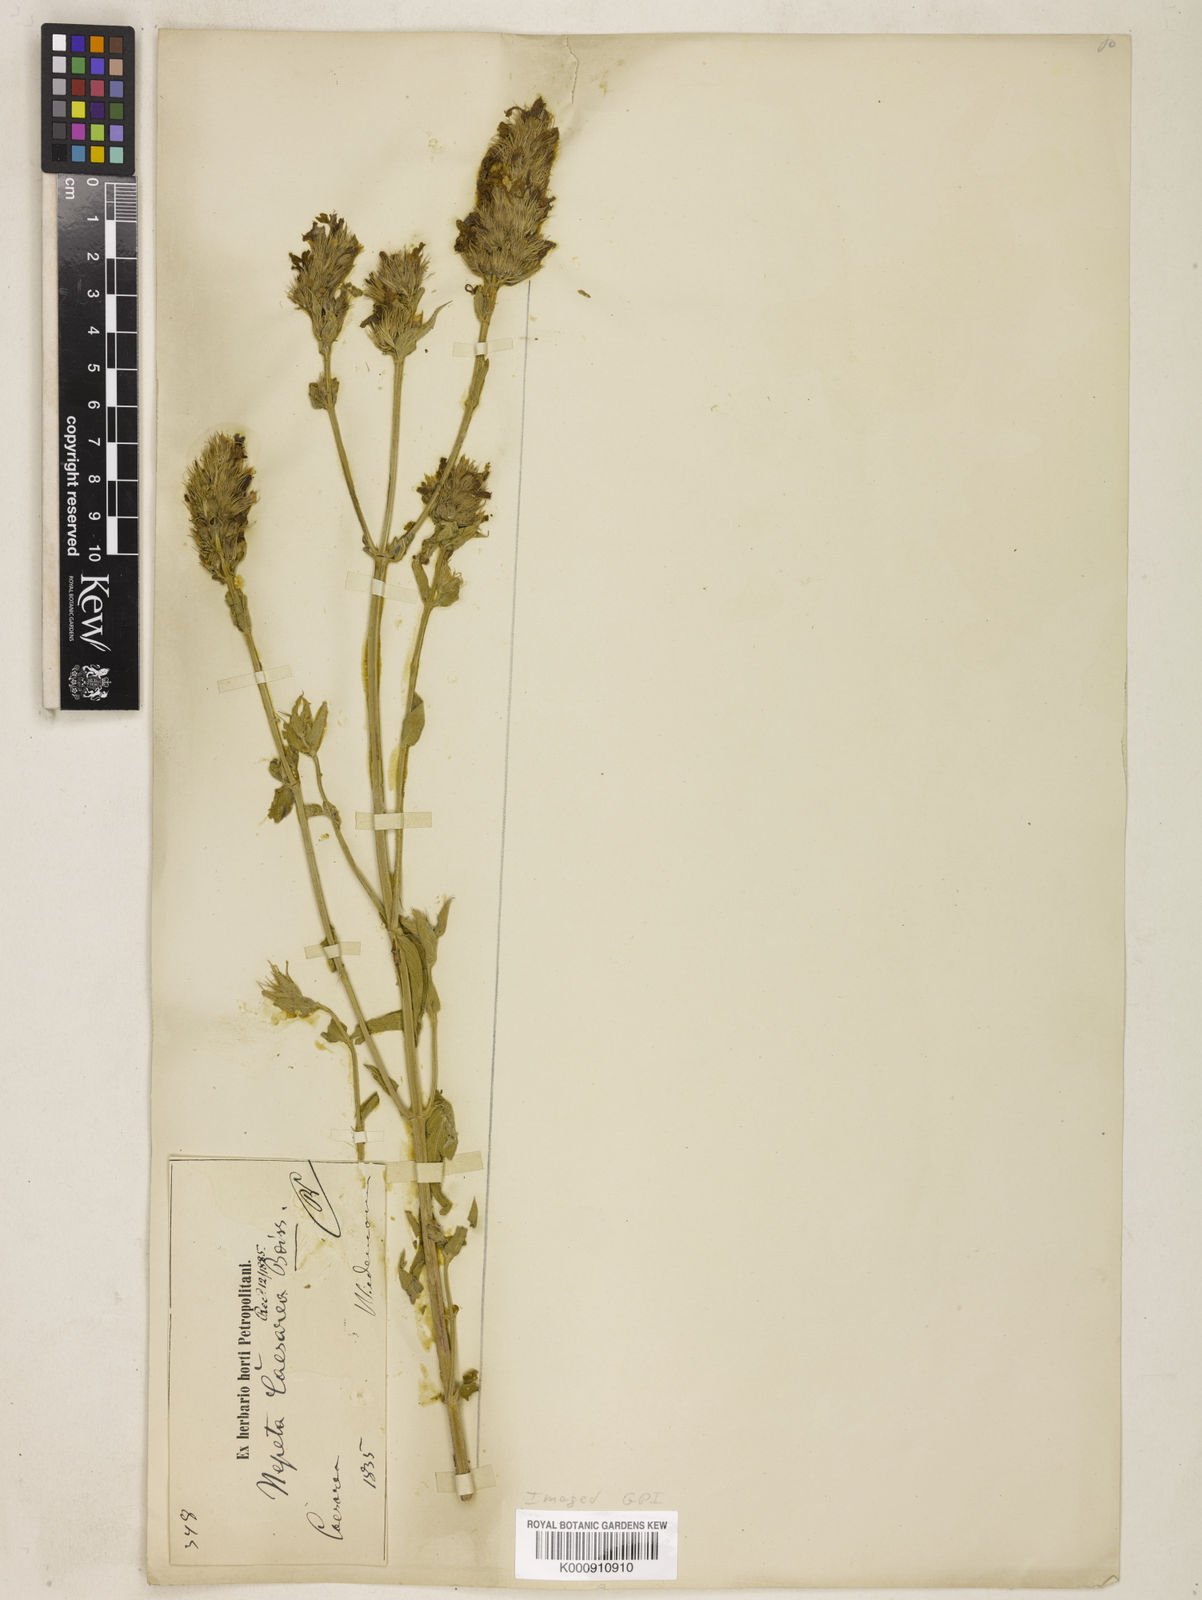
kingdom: Plantae
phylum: Tracheophyta
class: Magnoliopsida
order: Lamiales
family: Lamiaceae
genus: Nepeta
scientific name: Nepeta caesarea
